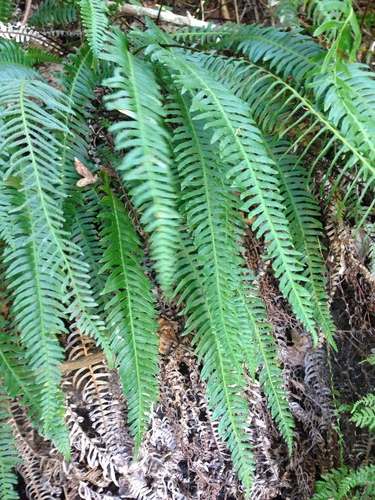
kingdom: Plantae
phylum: Tracheophyta
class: Polypodiopsida
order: Polypodiales
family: Blechnaceae
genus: Struthiopteris
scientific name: Struthiopteris spicant
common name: Deer fern
